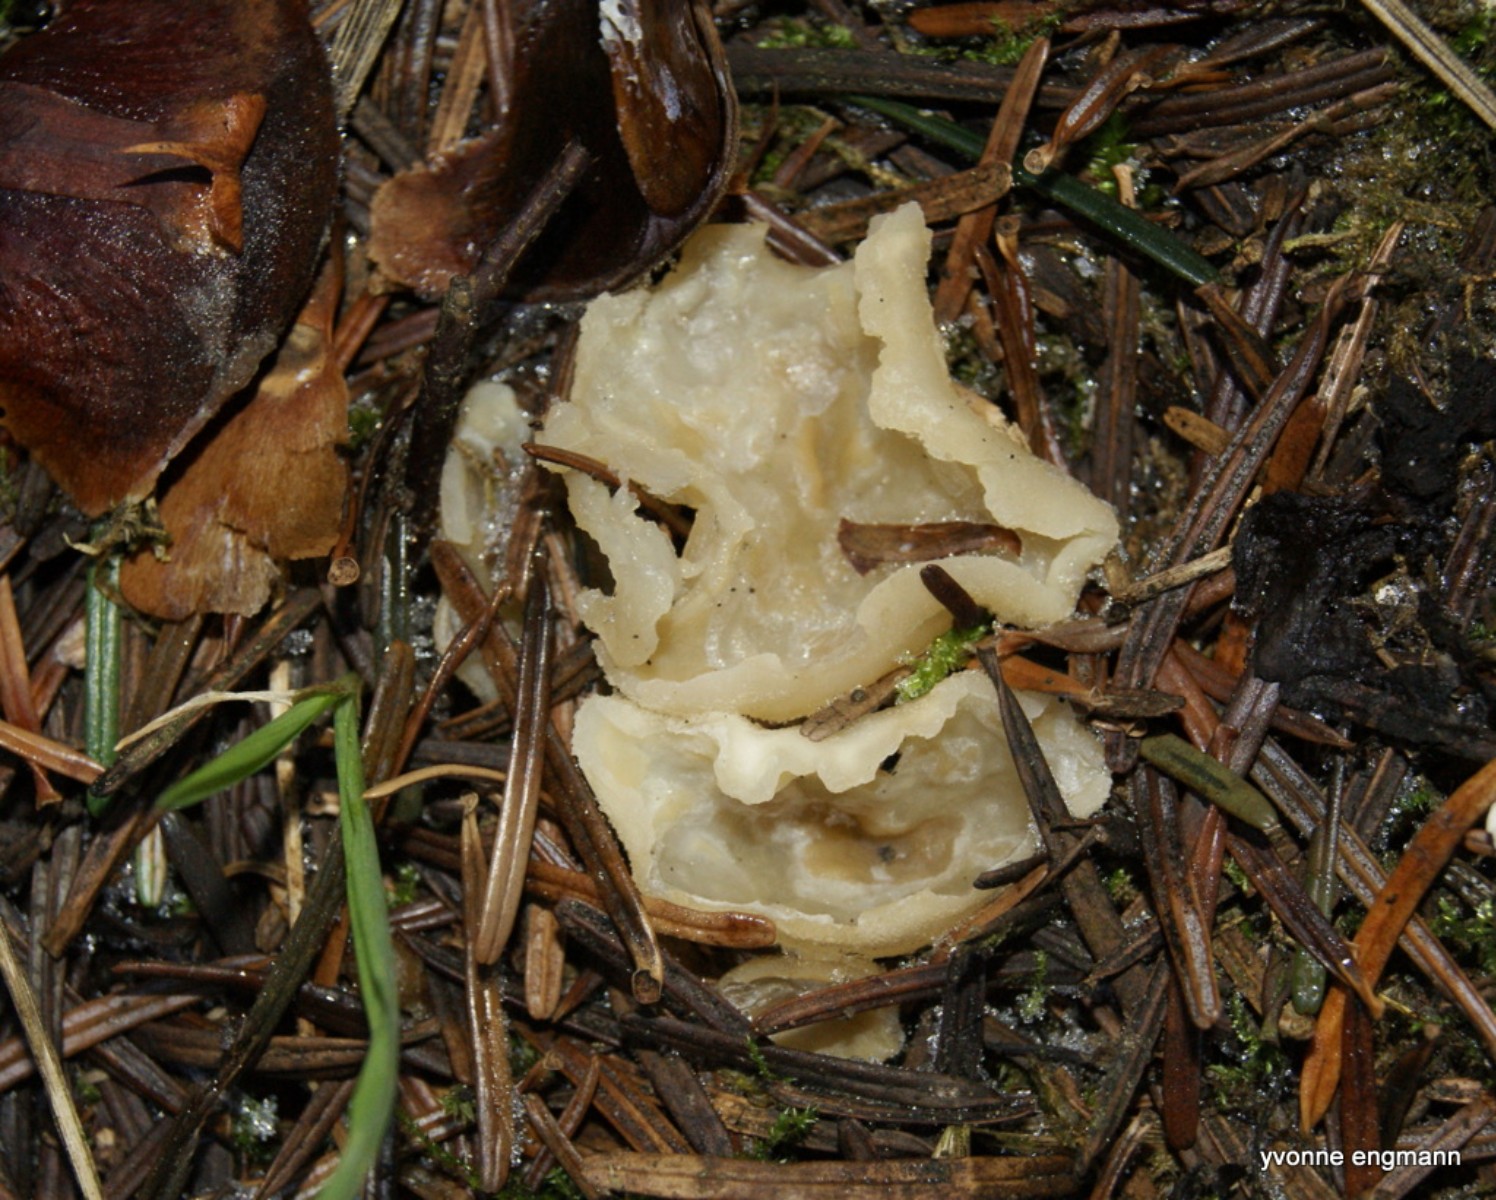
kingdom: Fungi
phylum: Ascomycota
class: Pezizomycetes
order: Pezizales
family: Pezizaceae
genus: Peziza
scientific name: Peziza
